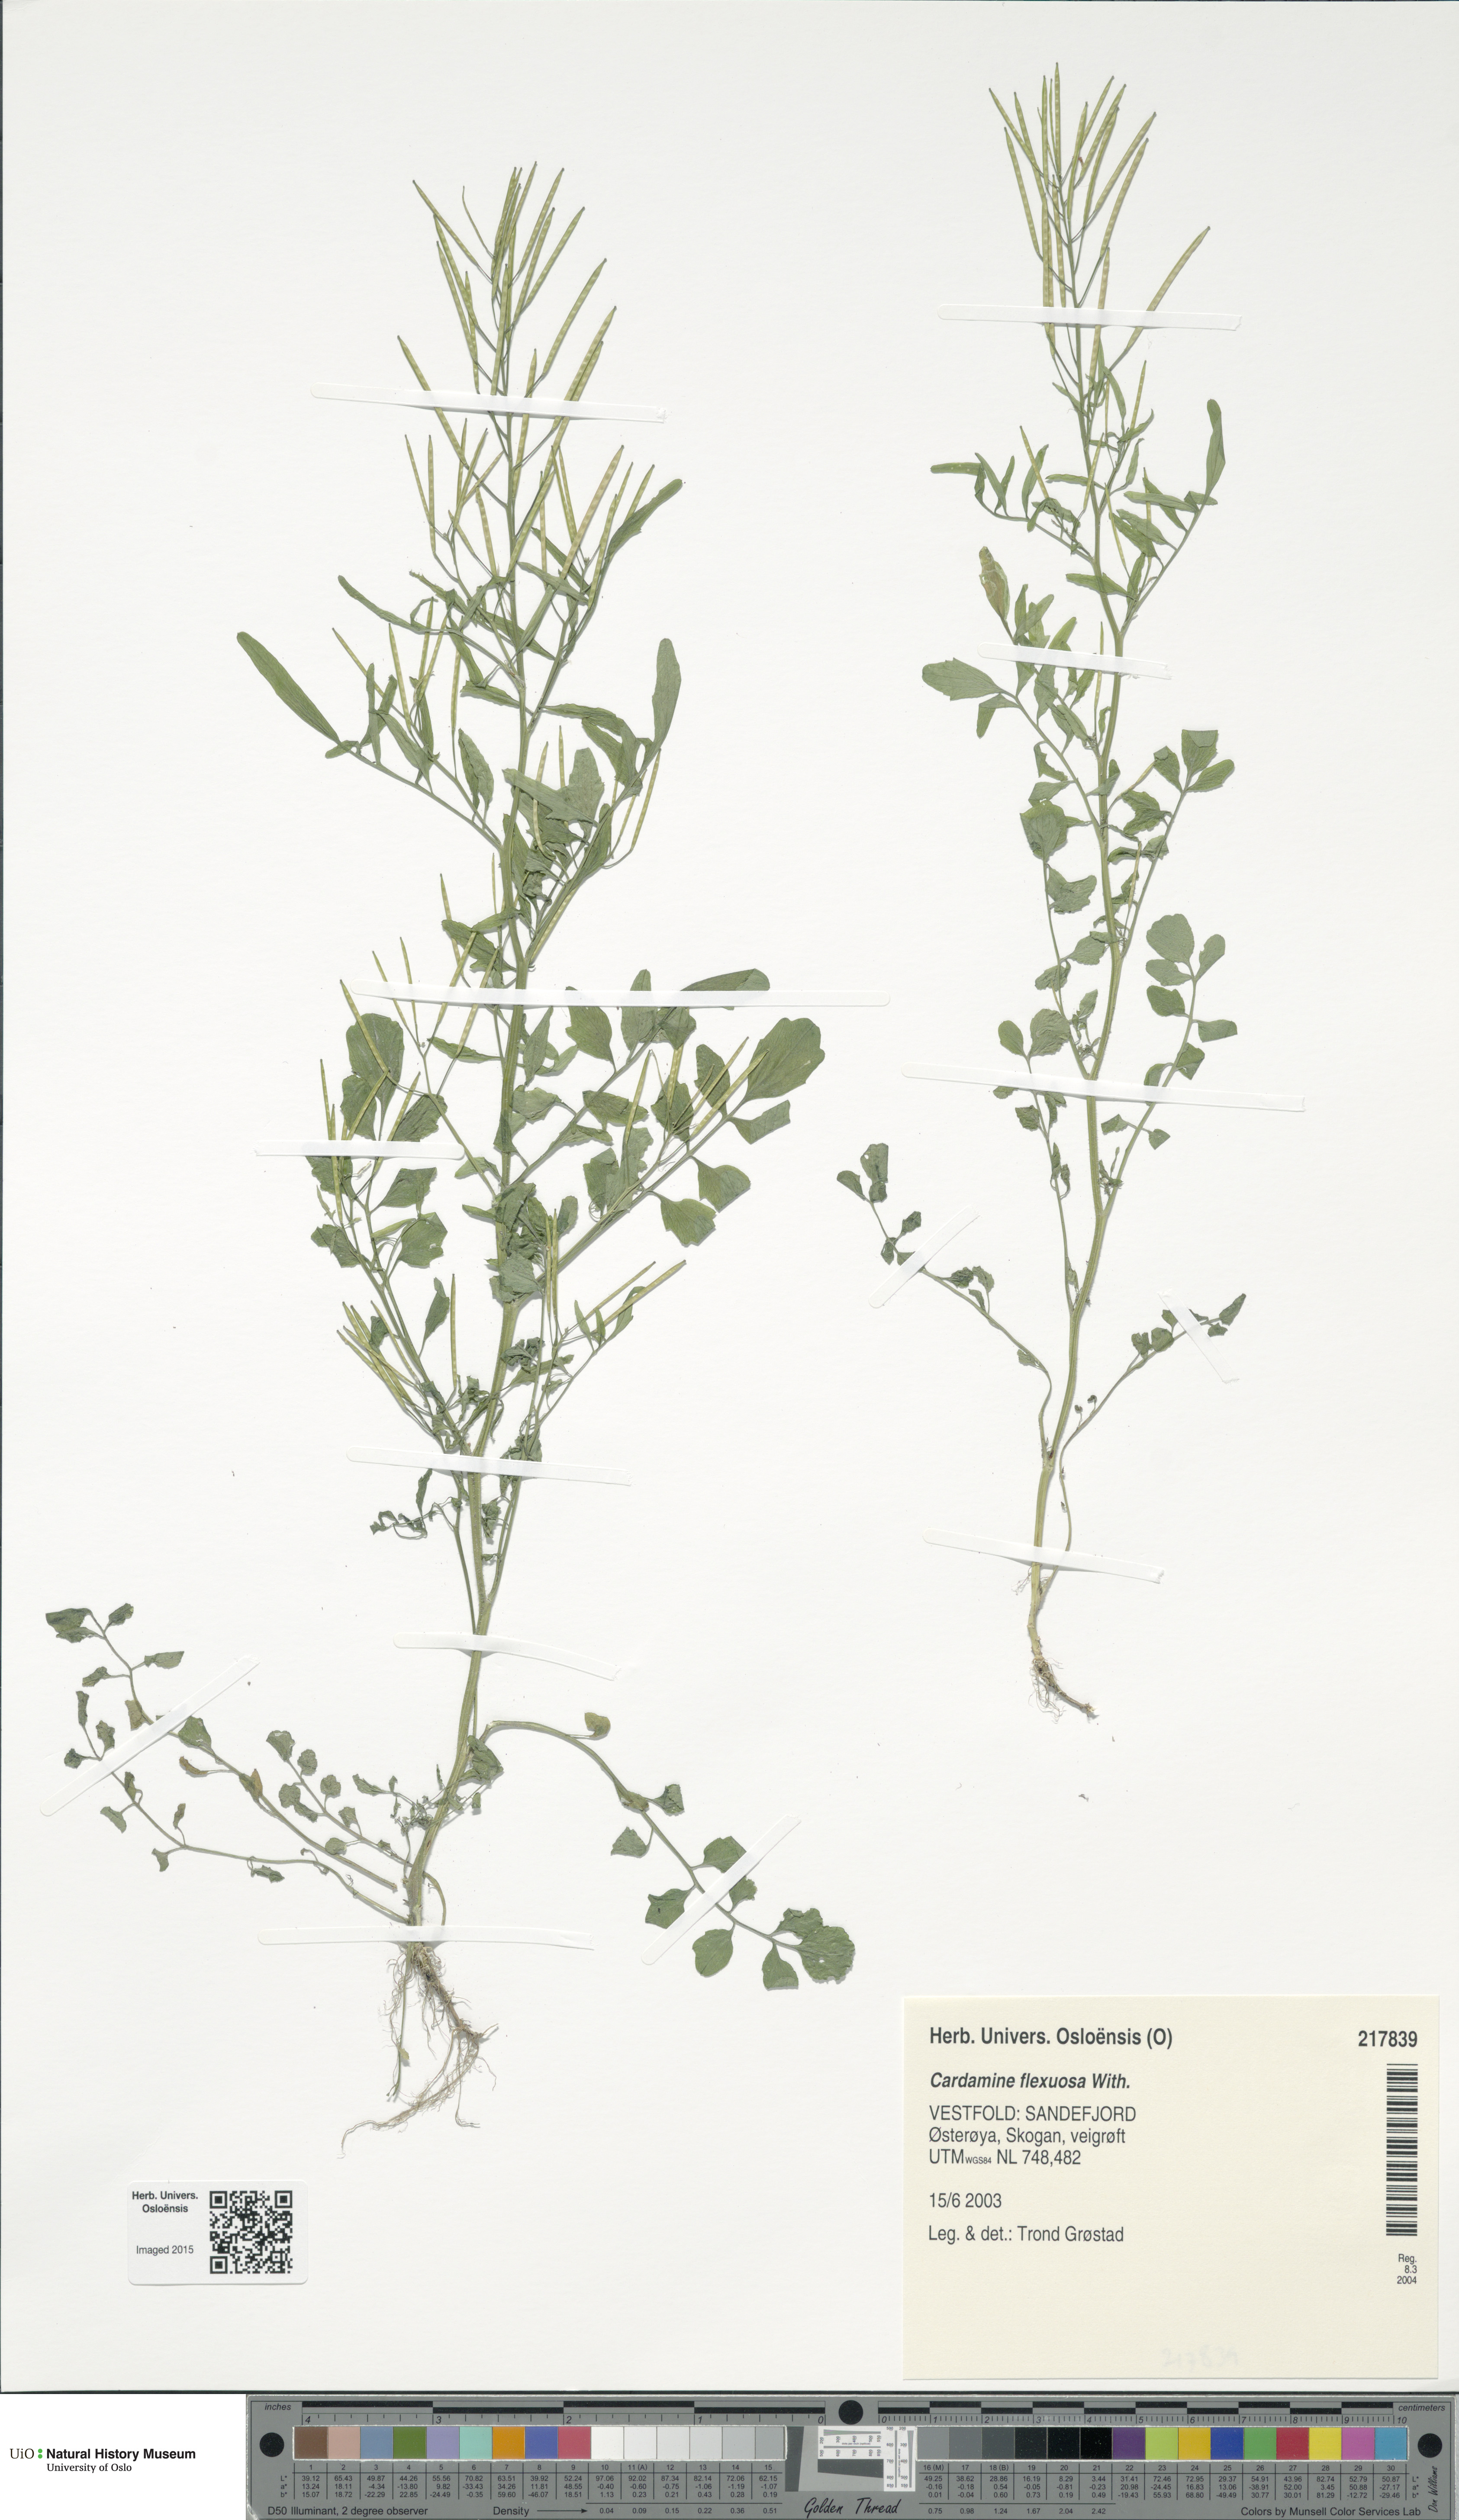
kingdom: Plantae
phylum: Tracheophyta
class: Magnoliopsida
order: Brassicales
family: Brassicaceae
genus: Cardamine
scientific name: Cardamine flexuosa
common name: Woodland bittercress
